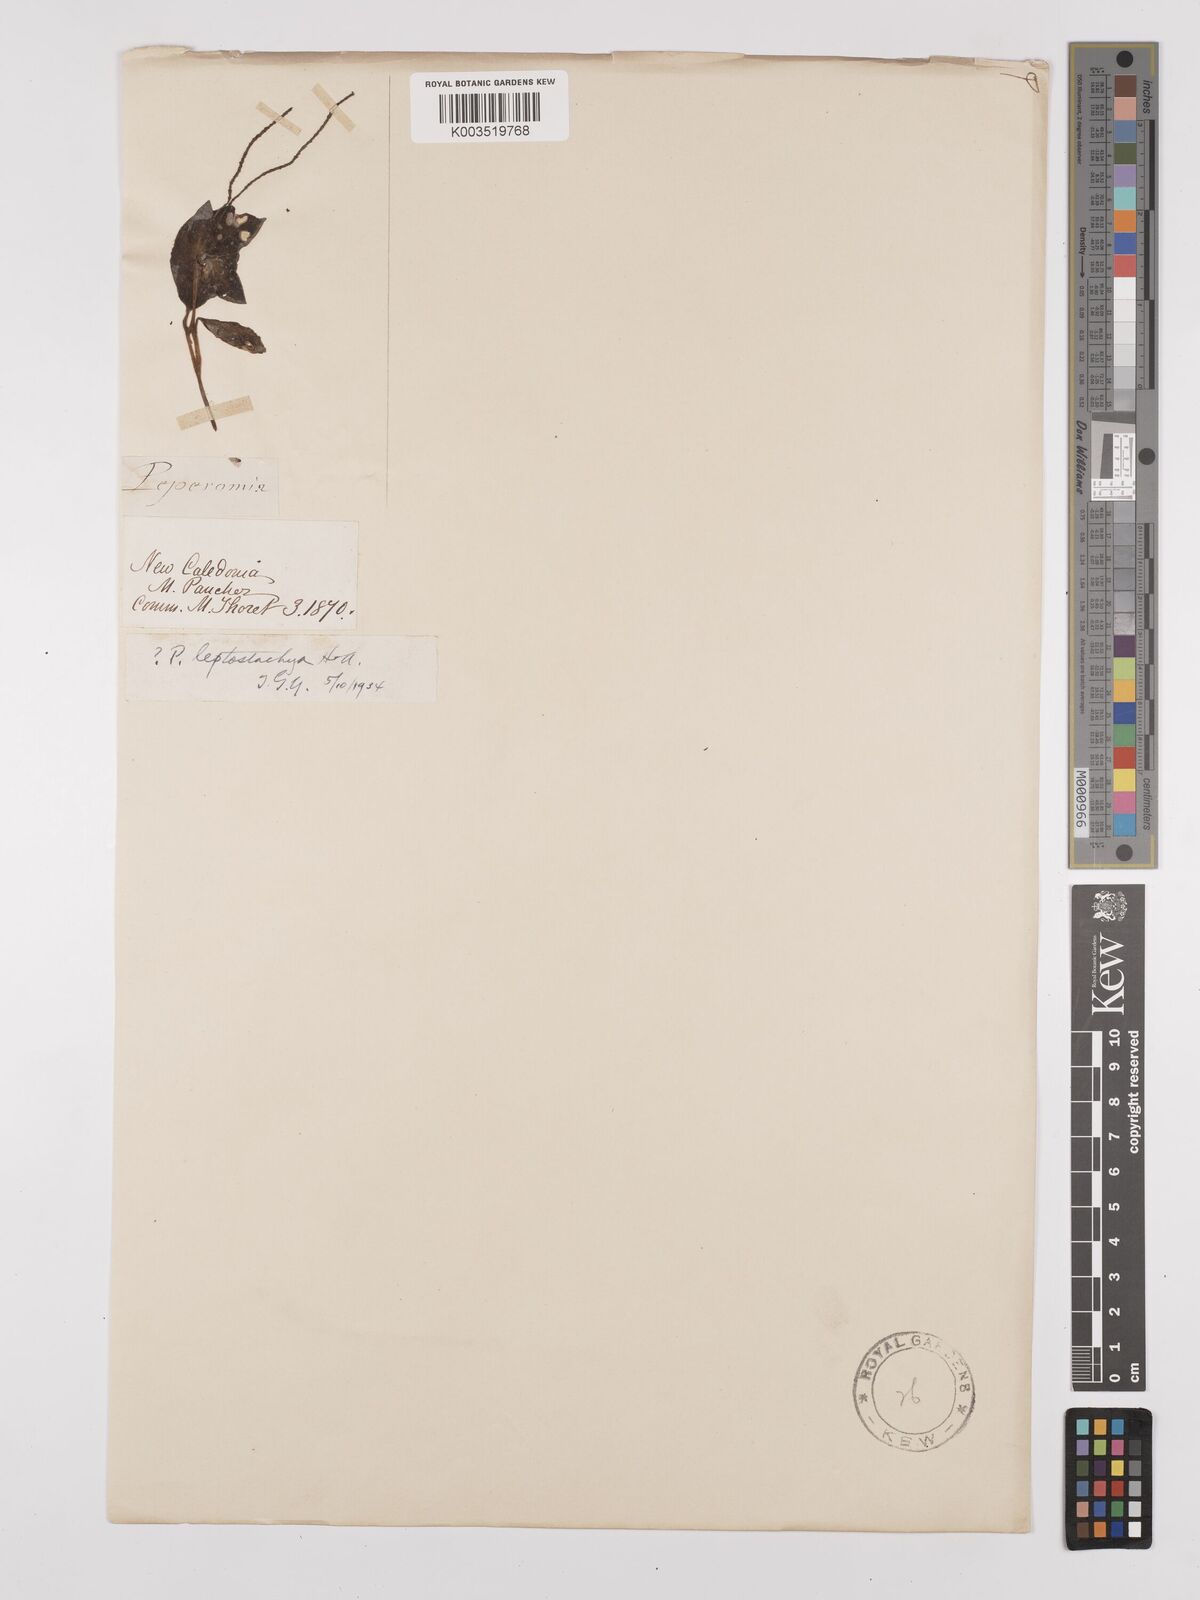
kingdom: Plantae
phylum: Tracheophyta
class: Magnoliopsida
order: Piperales
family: Piperaceae
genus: Peperomia
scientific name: Peperomia leptostachya
